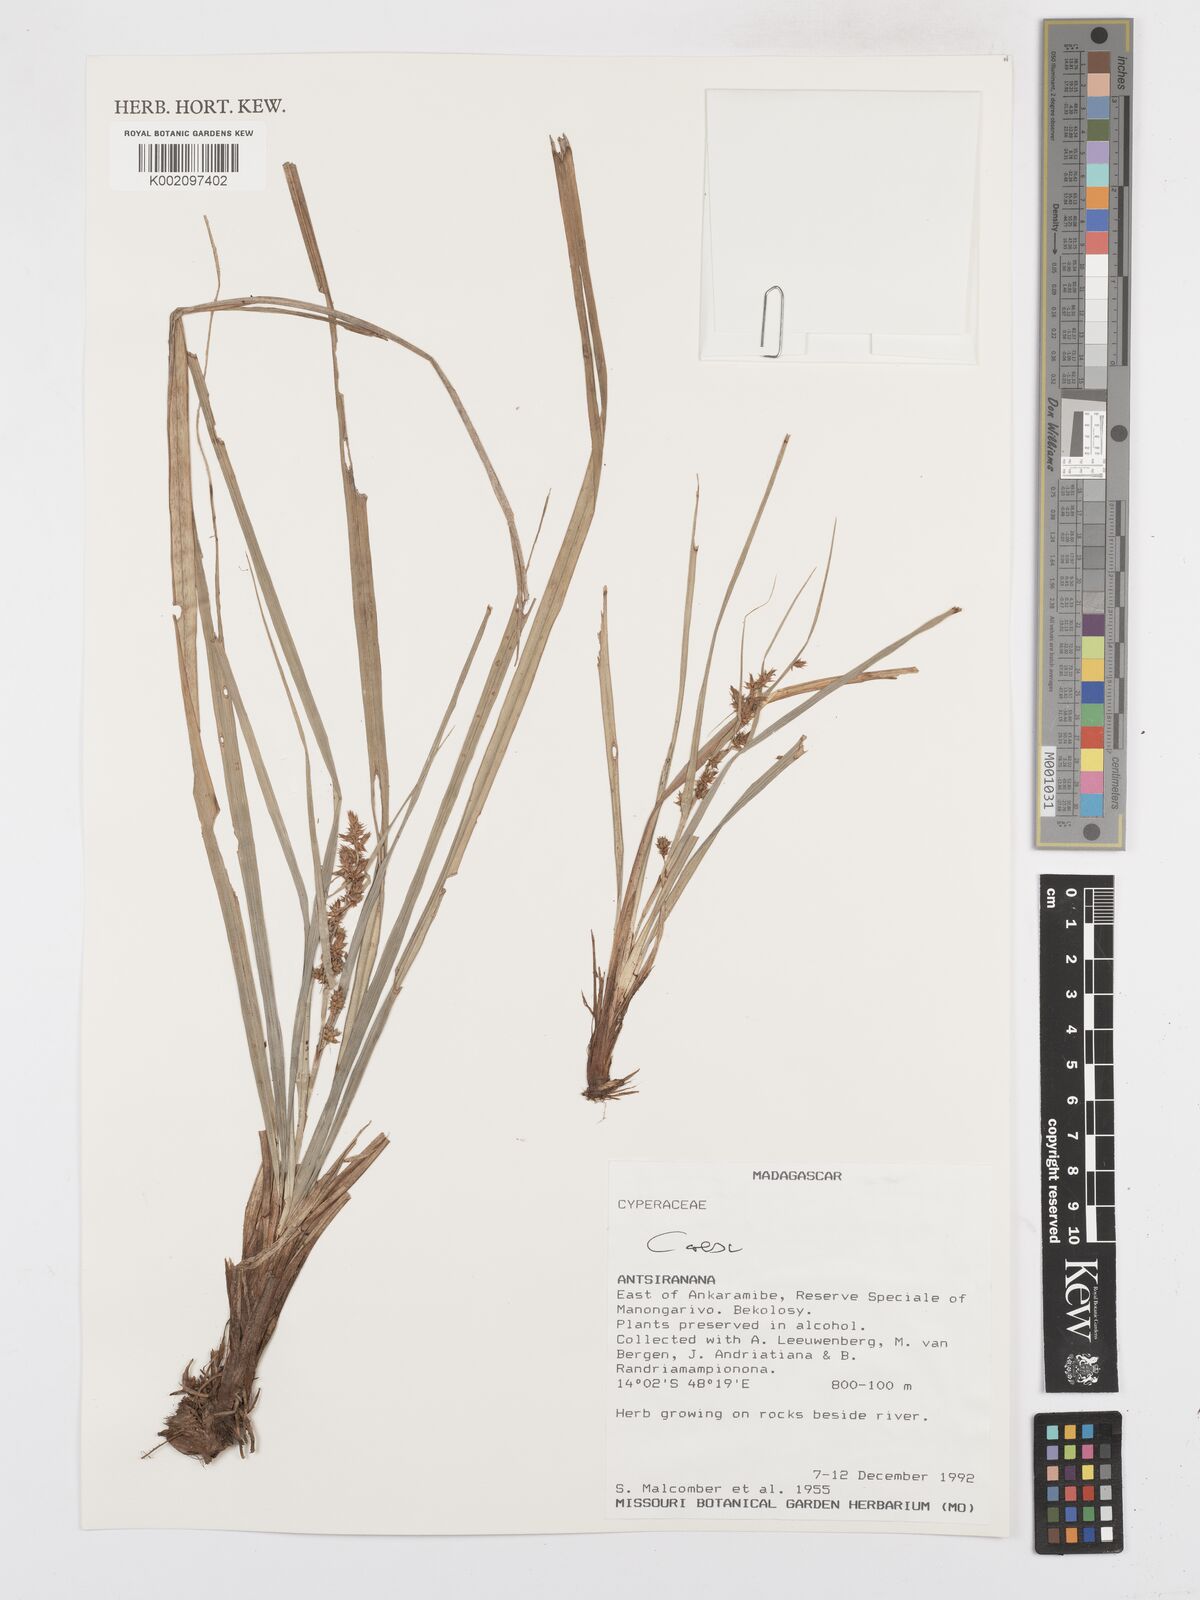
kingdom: Plantae
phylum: Tracheophyta
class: Liliopsida
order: Poales
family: Cyperaceae
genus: Carex
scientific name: Carex
